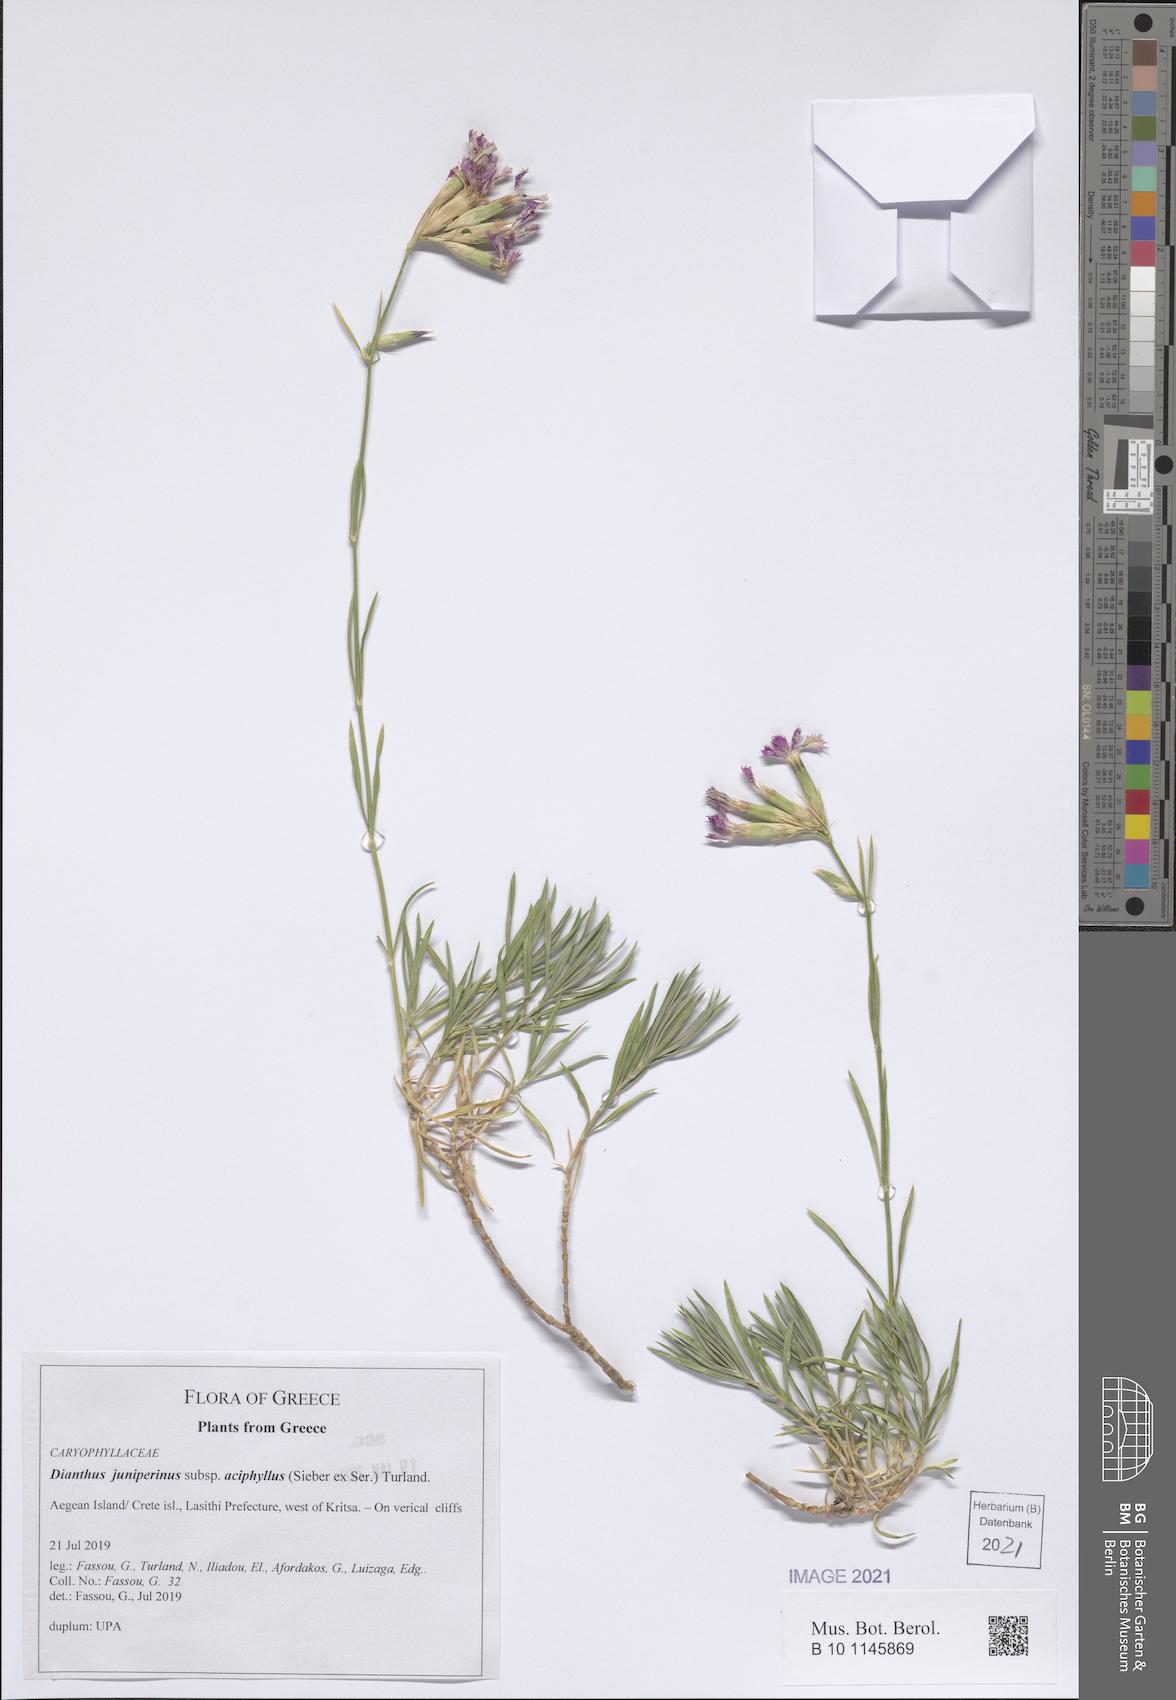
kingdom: Plantae
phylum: Tracheophyta
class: Magnoliopsida
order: Caryophyllales
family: Caryophyllaceae
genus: Dianthus
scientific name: Dianthus juniperinus
